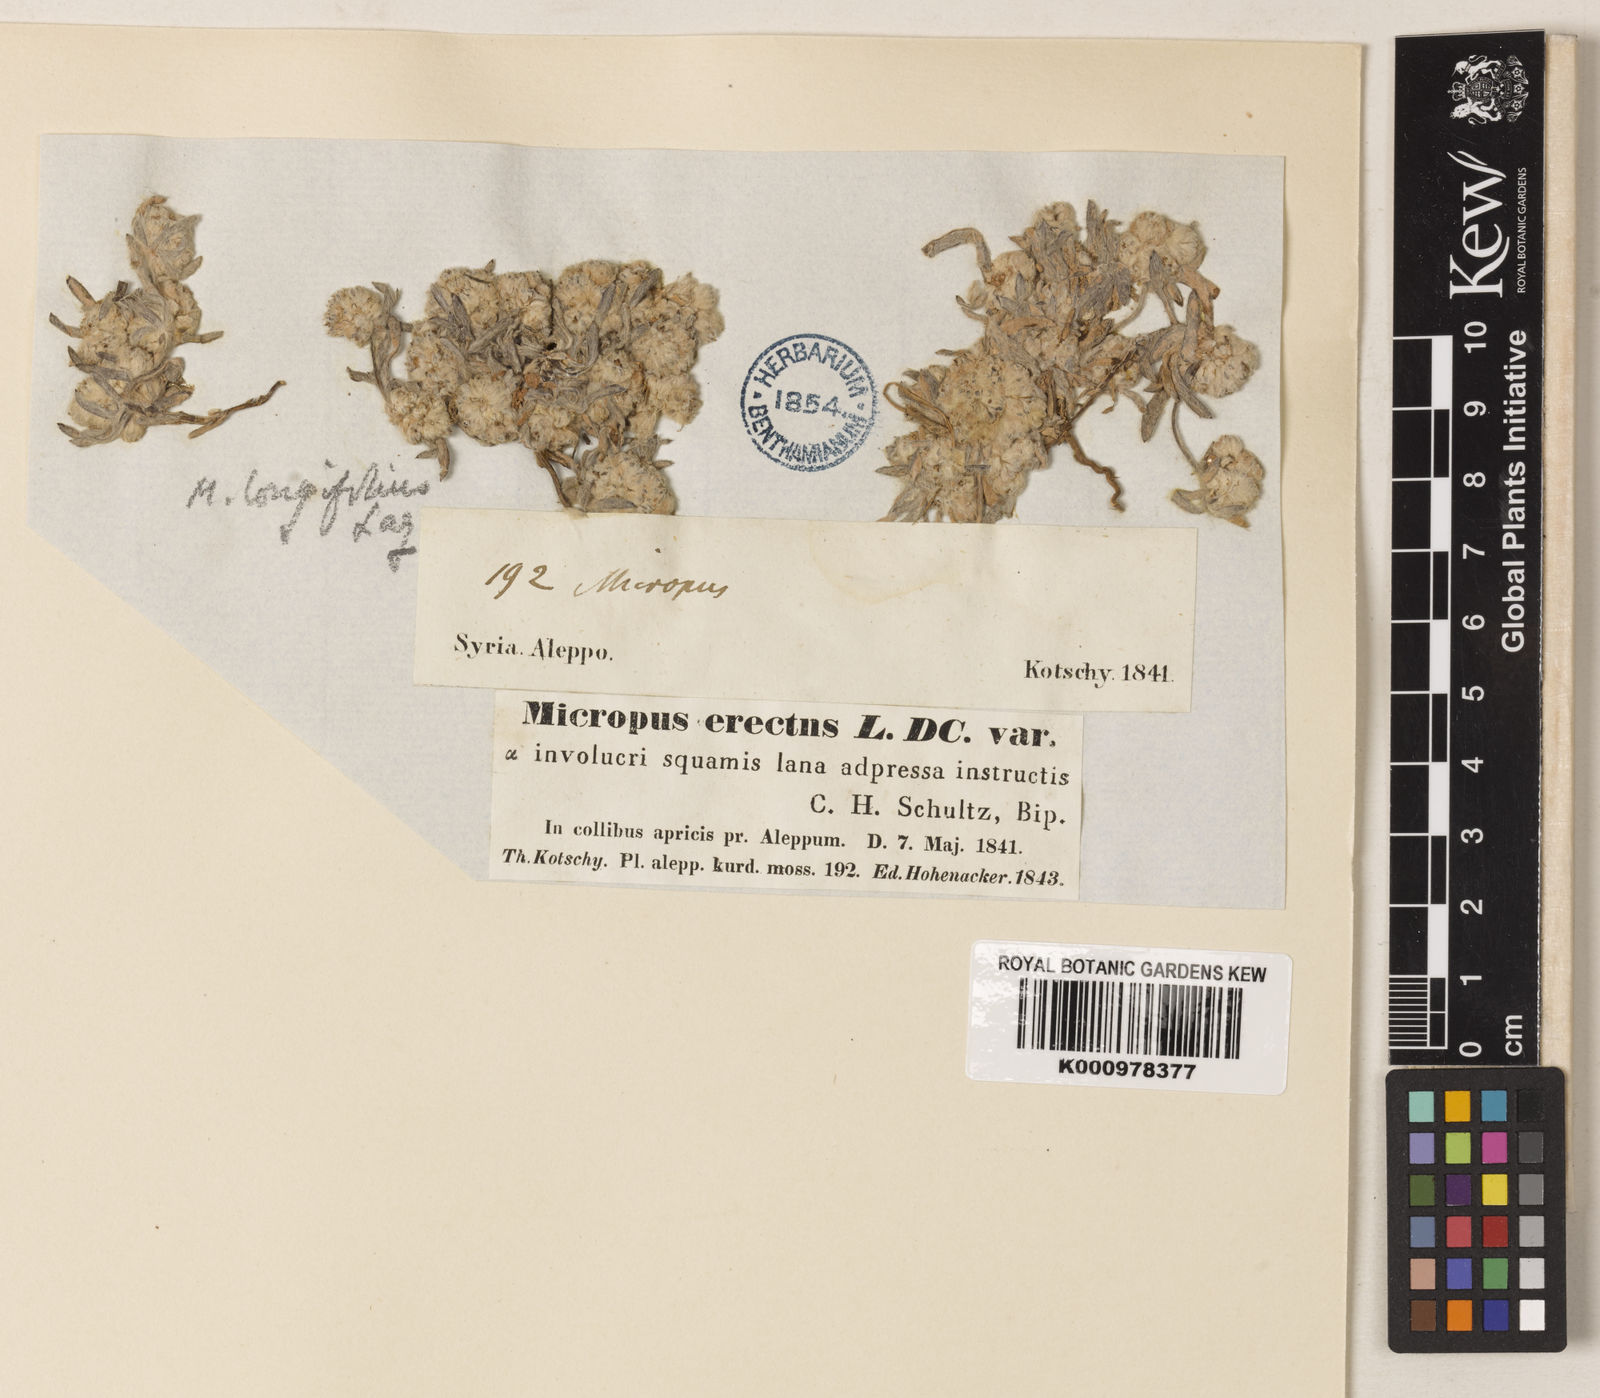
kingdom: Plantae
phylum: Tracheophyta
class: Magnoliopsida
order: Asterales
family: Asteraceae
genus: Filago
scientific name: Filago griffithii
